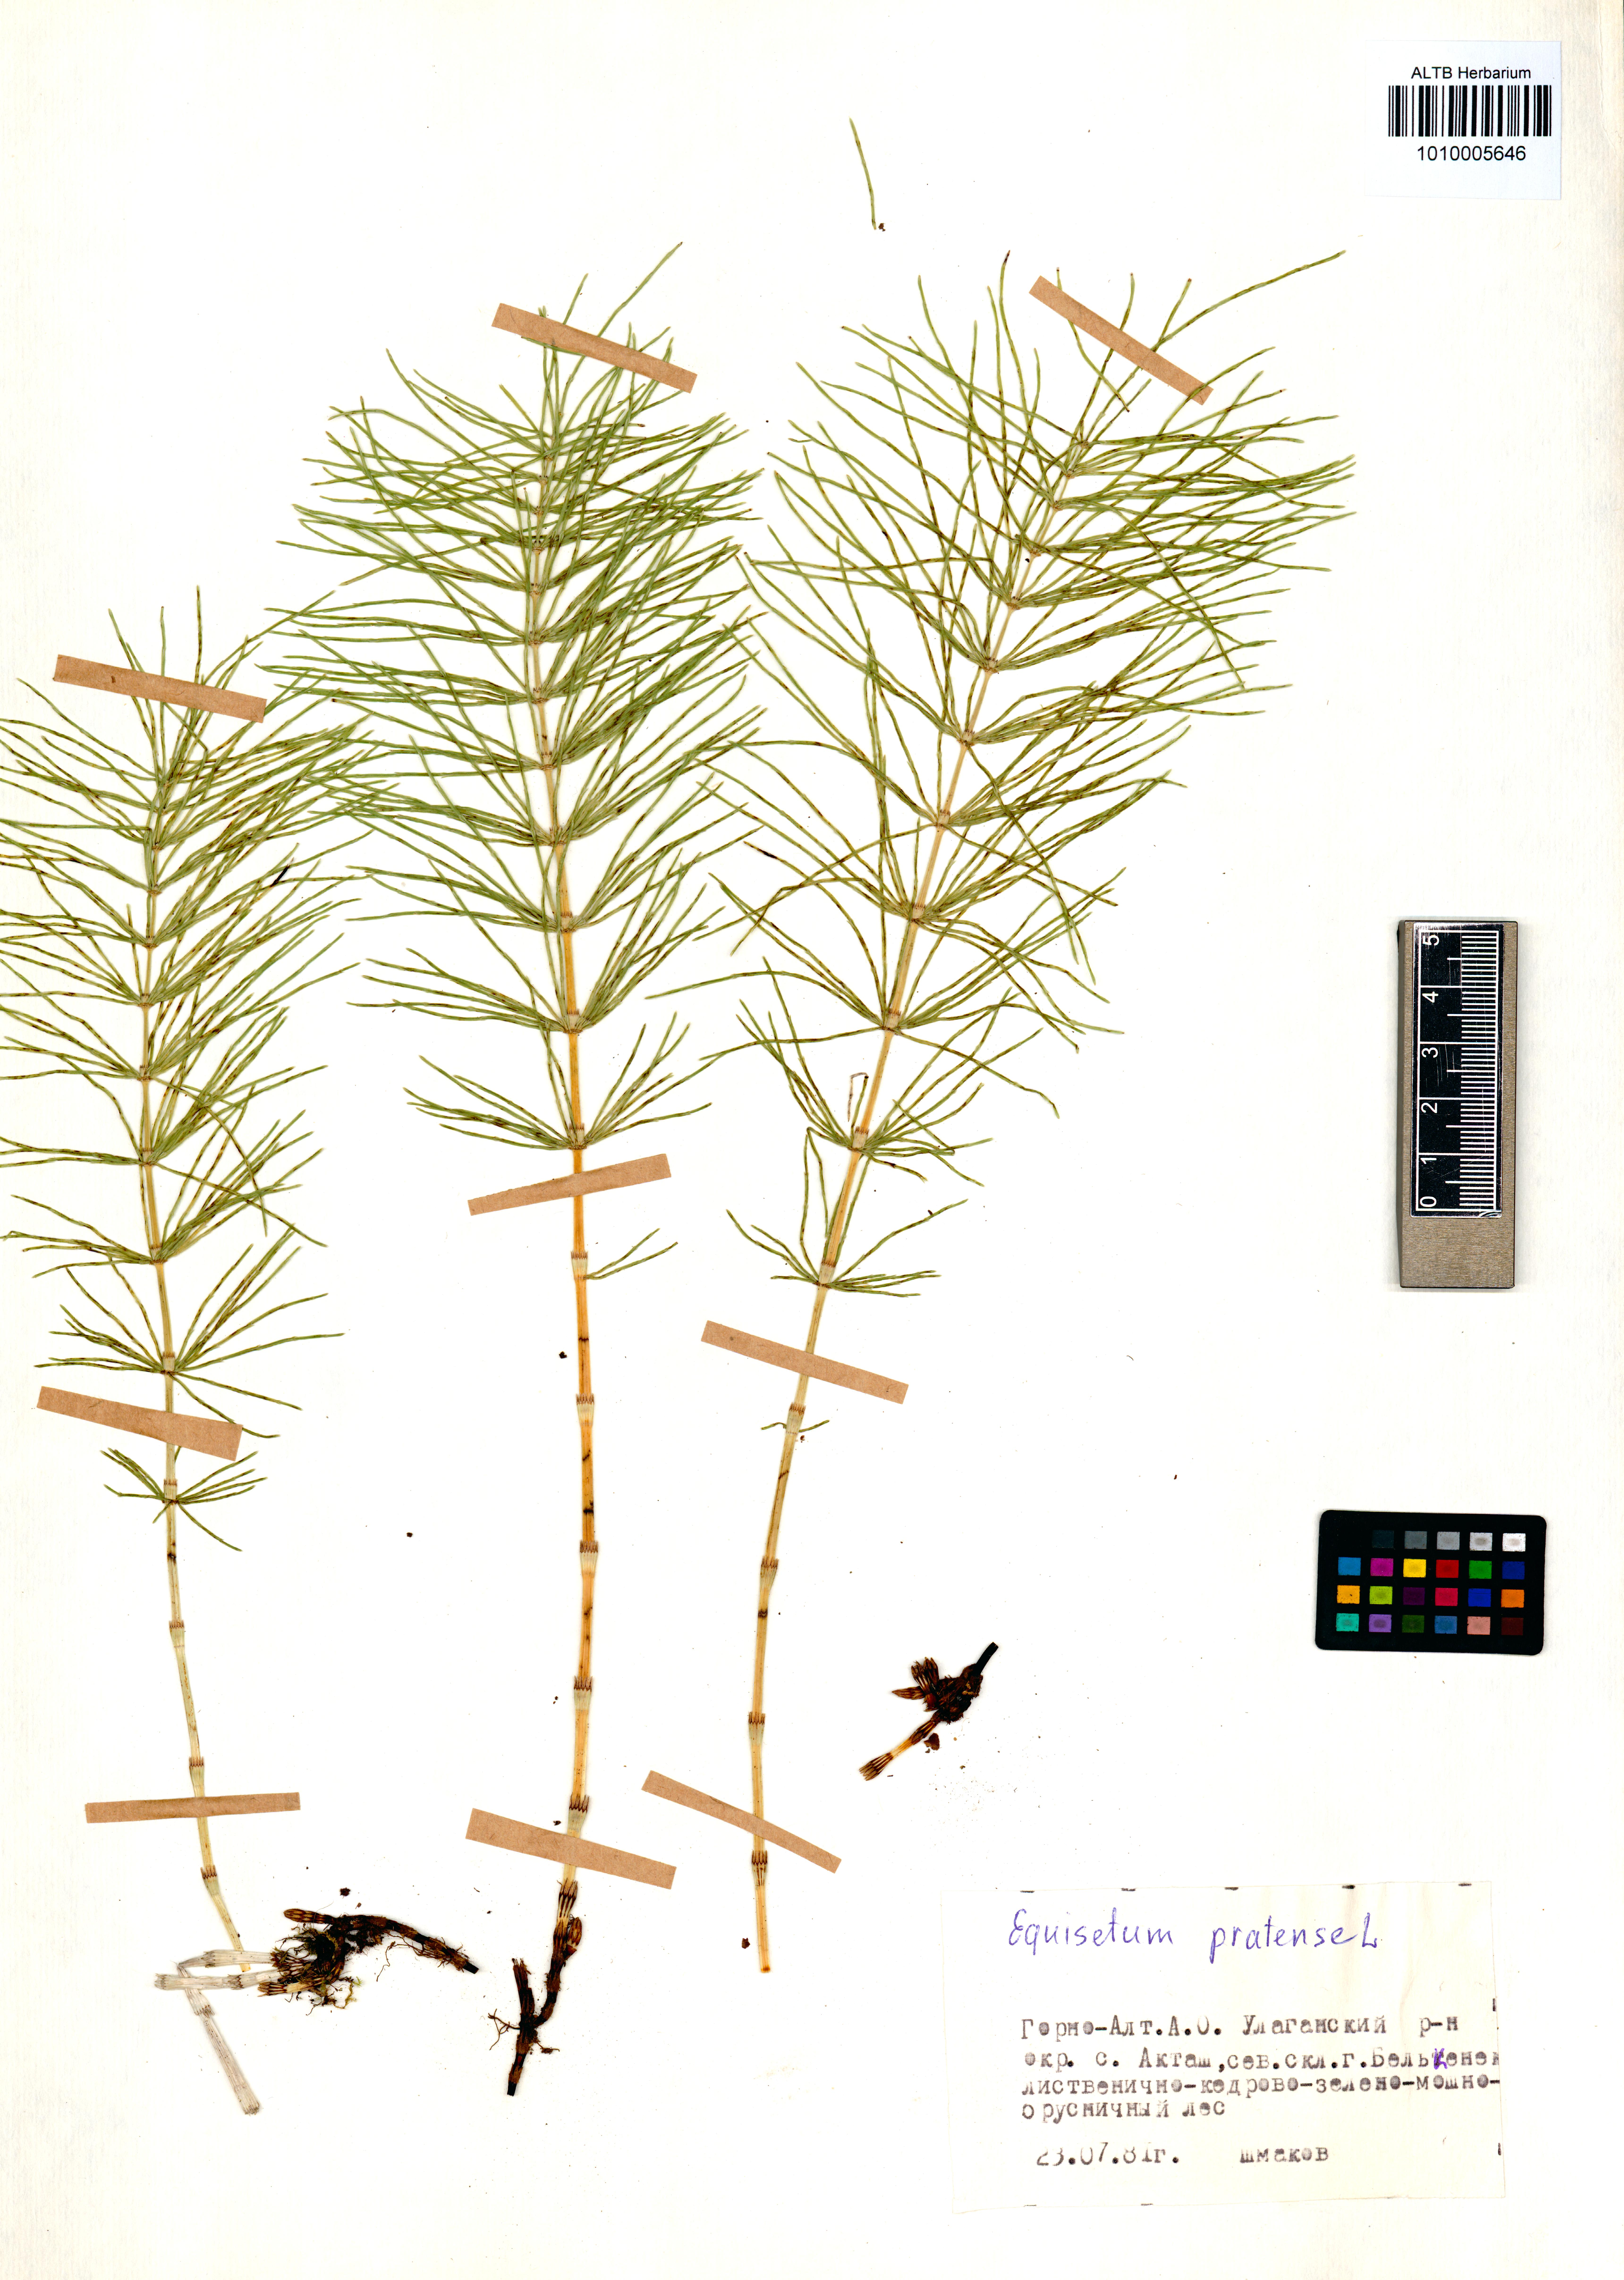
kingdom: Plantae
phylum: Tracheophyta
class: Polypodiopsida
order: Equisetales
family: Equisetaceae
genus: Equisetum
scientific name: Equisetum pratense
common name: Meadow horsetail
